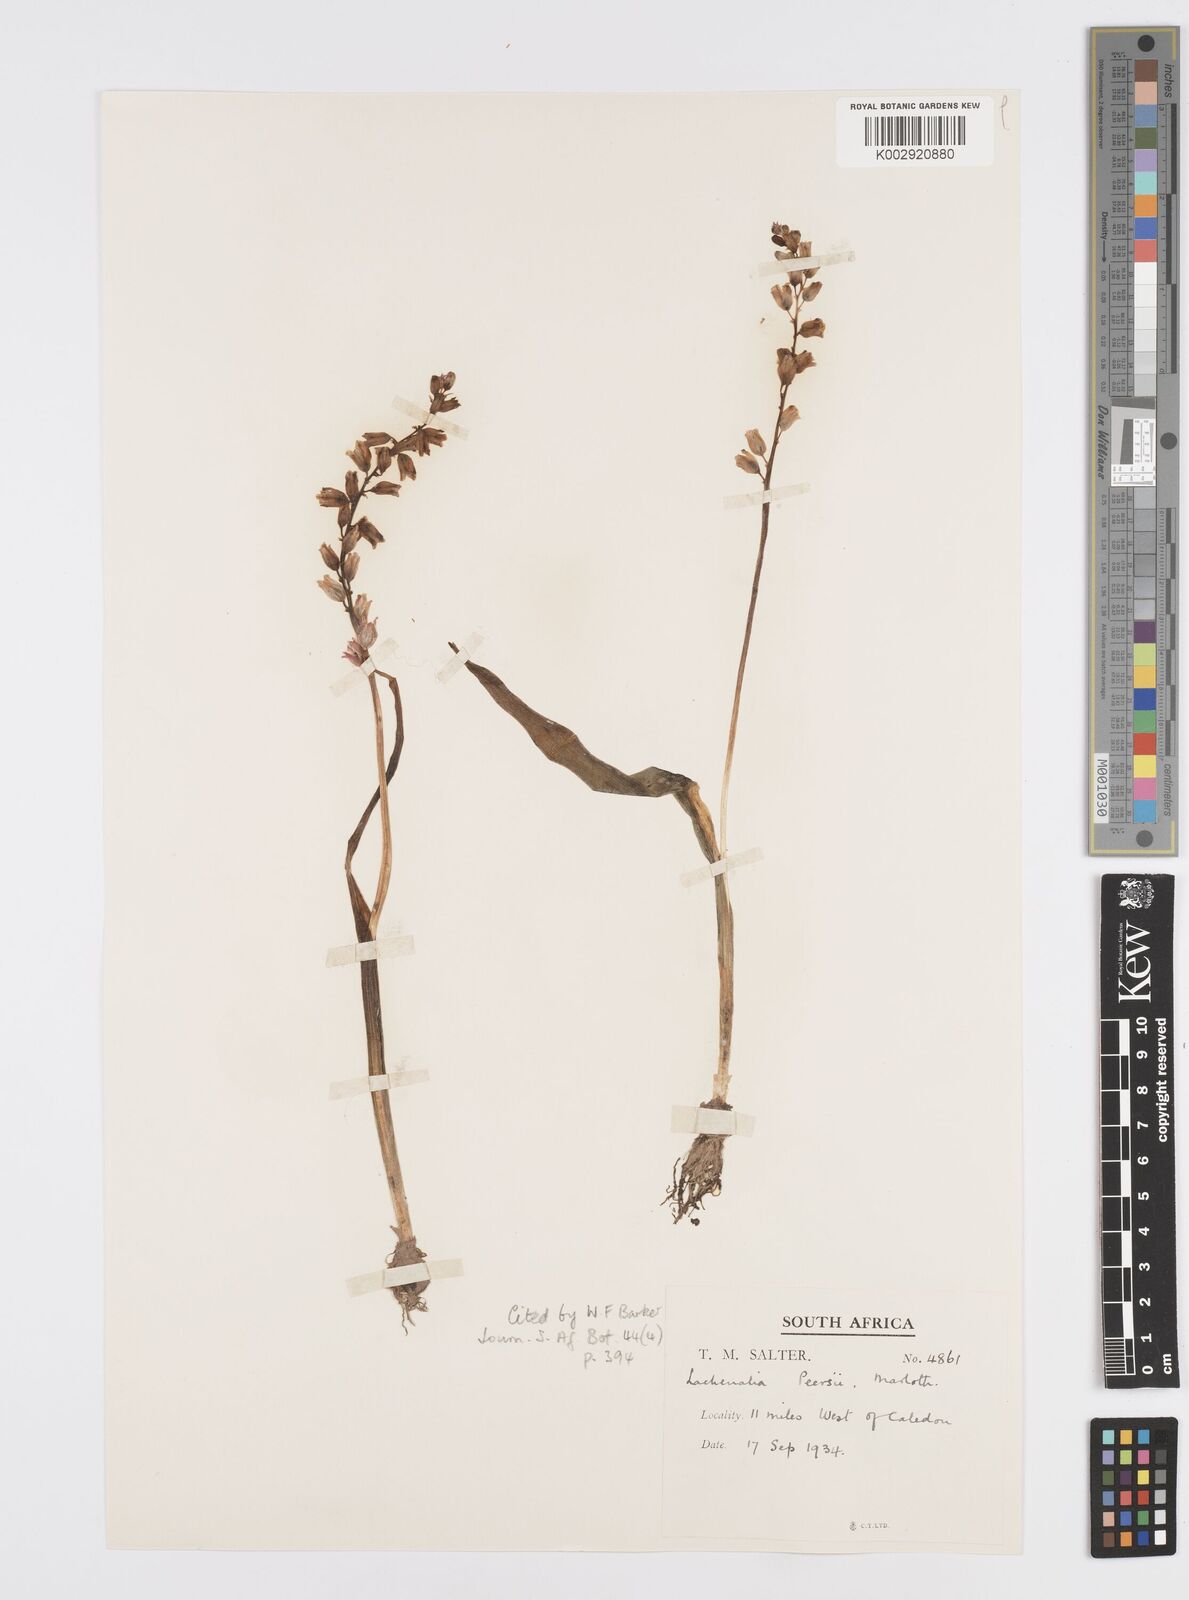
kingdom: Plantae
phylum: Tracheophyta
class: Liliopsida
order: Asparagales
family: Asparagaceae
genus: Lachenalia
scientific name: Lachenalia peersii
